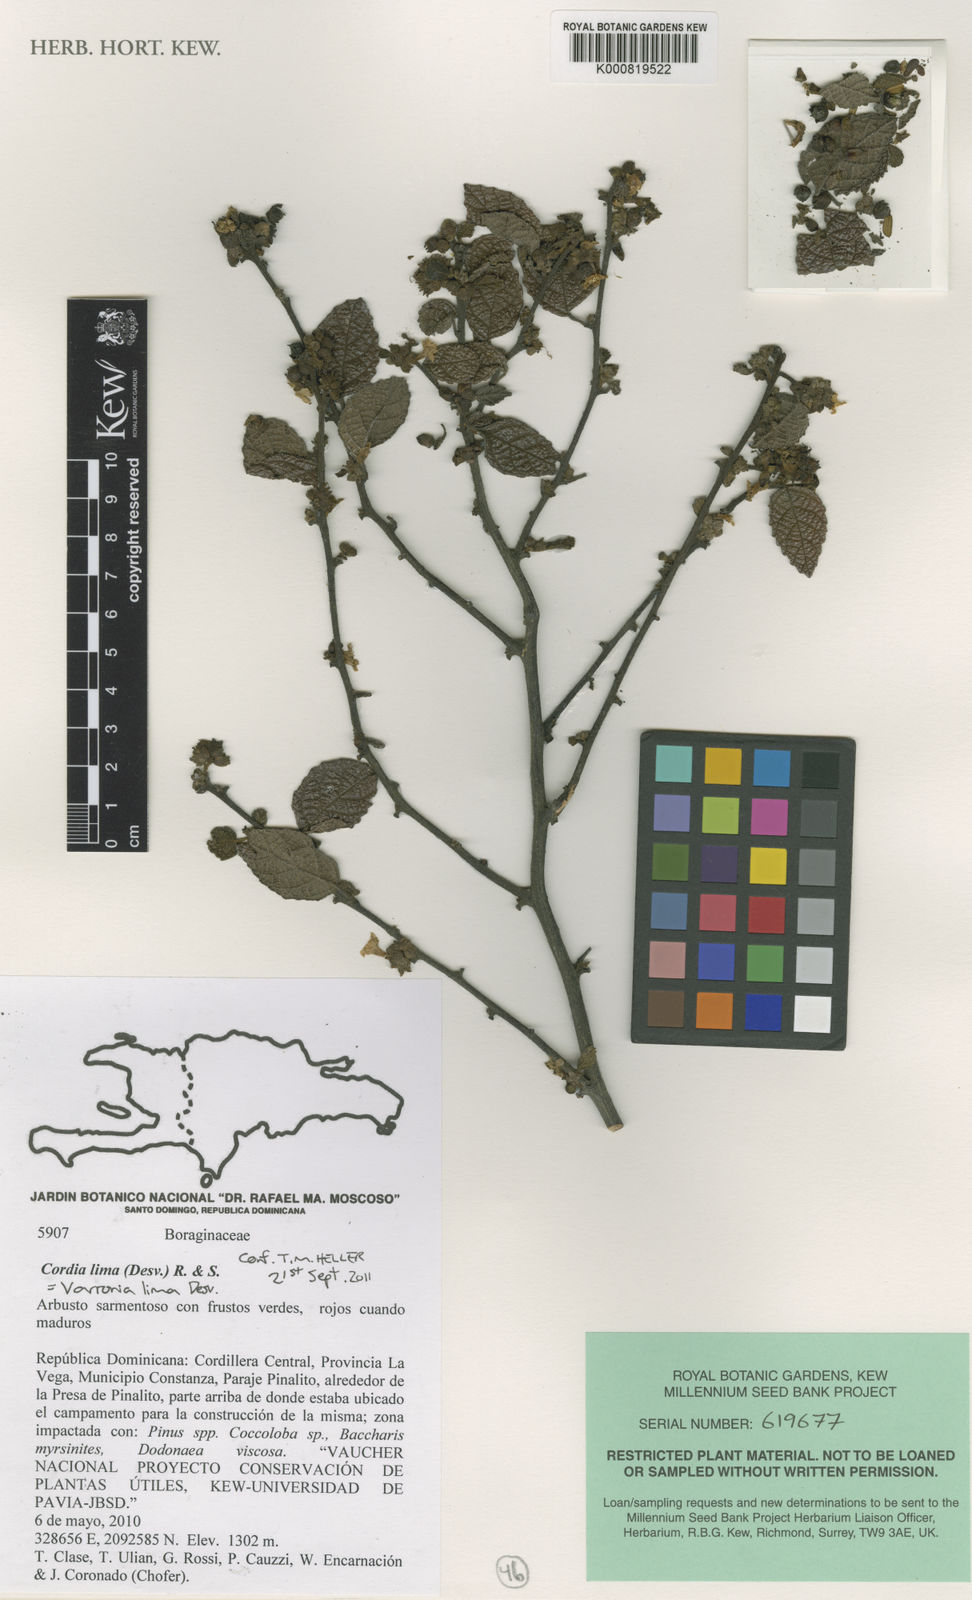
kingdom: Plantae
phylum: Tracheophyta
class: Magnoliopsida
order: Boraginales
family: Cordiaceae
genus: Cordia
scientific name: Cordia
